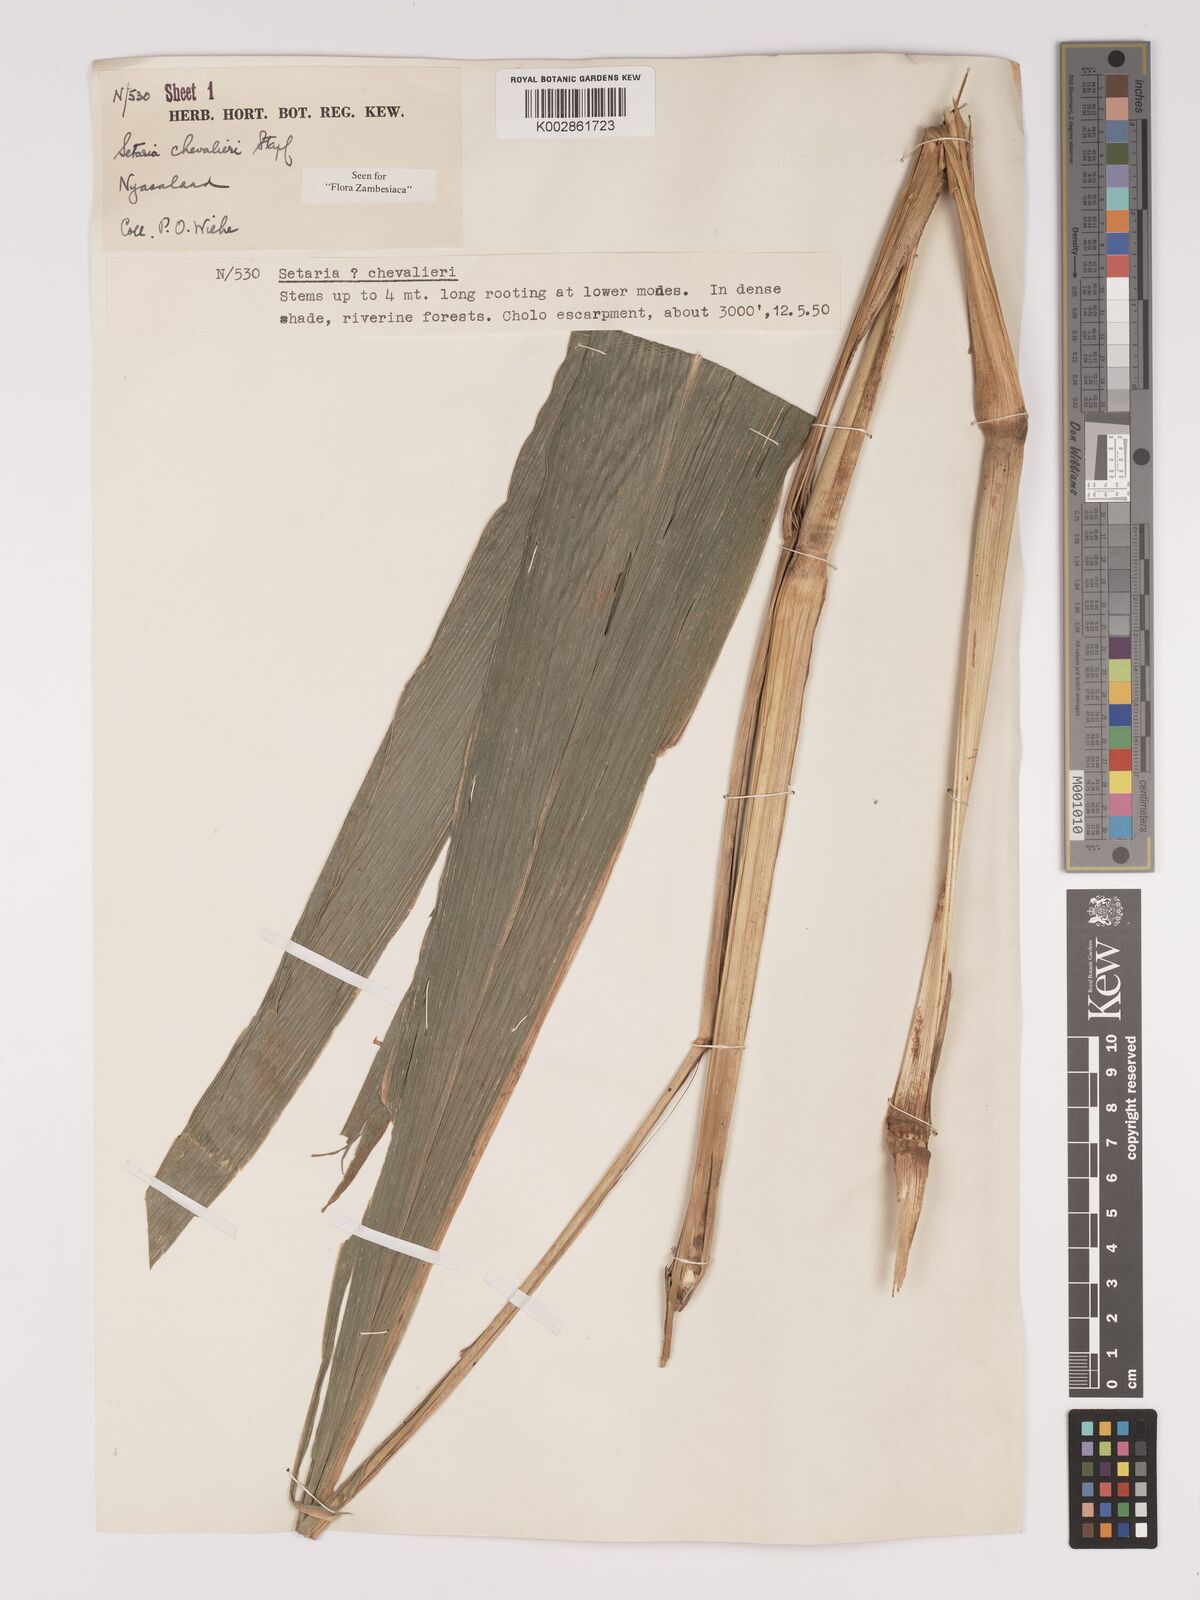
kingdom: Plantae
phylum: Tracheophyta
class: Liliopsida
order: Poales
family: Poaceae
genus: Setaria
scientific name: Setaria megaphylla
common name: Bigleaf bristlegrass
